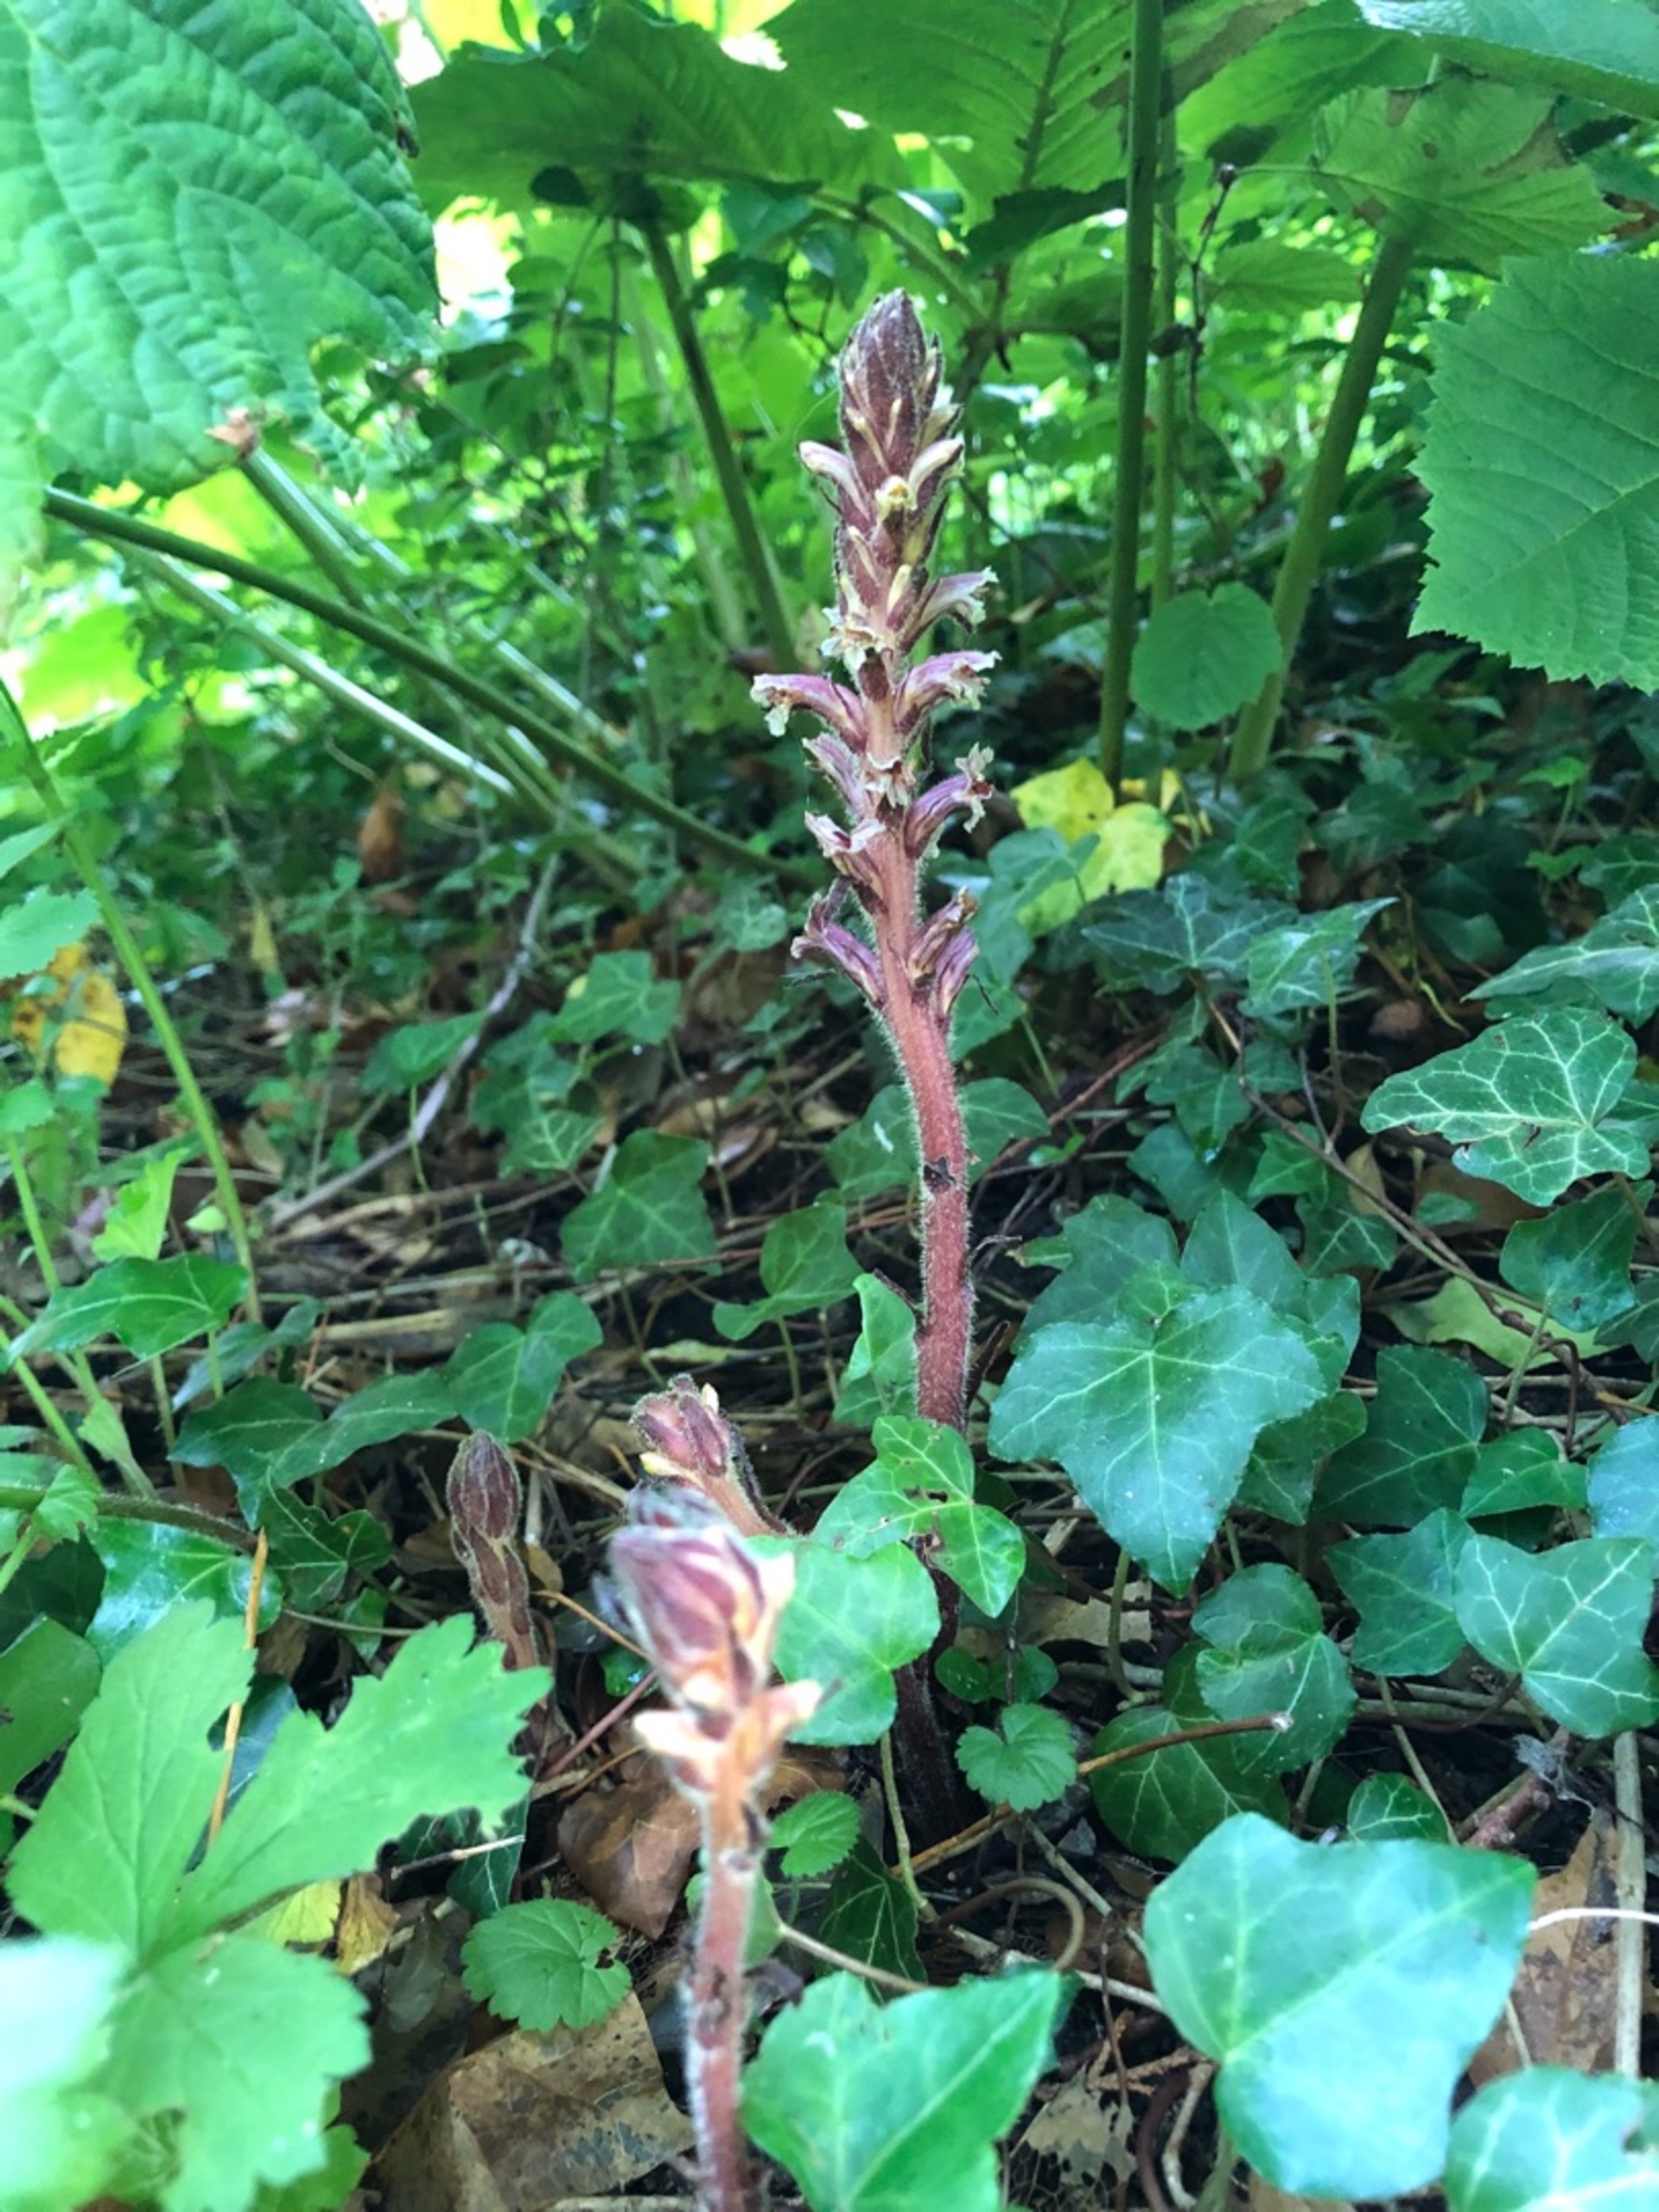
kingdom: Plantae
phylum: Tracheophyta
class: Magnoliopsida
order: Lamiales
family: Orobanchaceae
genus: Orobanche
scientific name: Orobanche hederae
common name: Vedbend-gyvelkvæler
